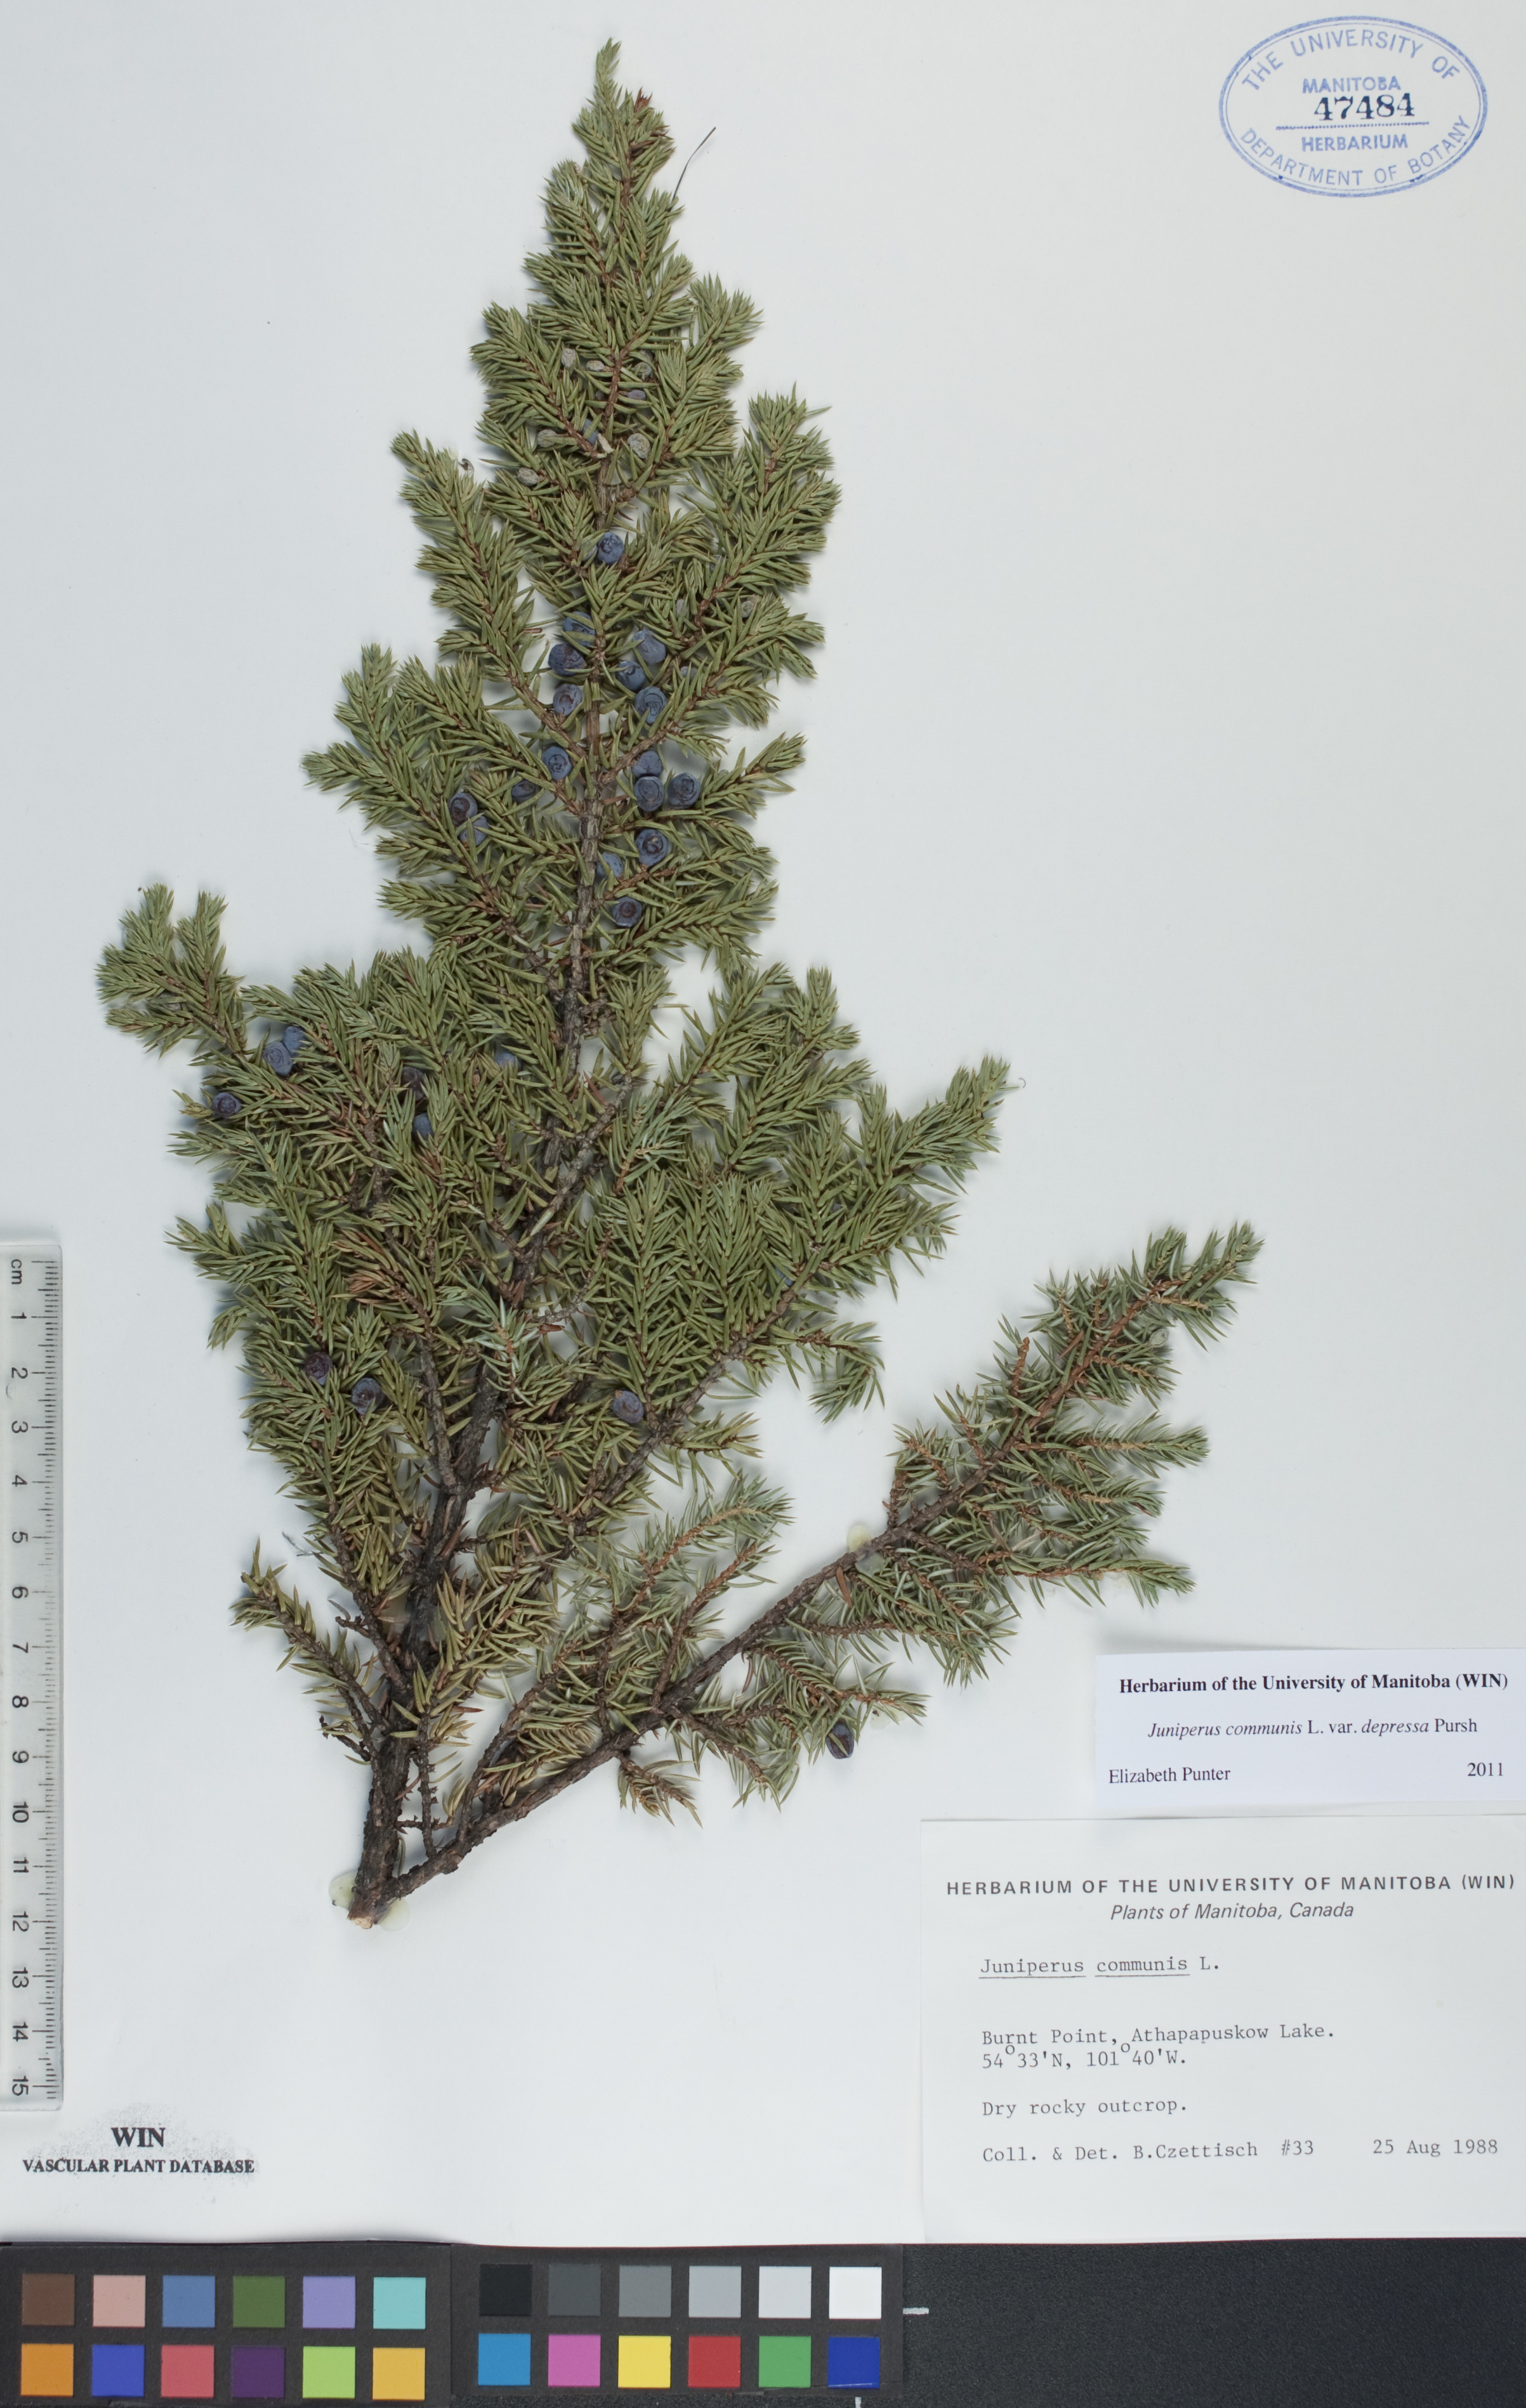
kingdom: Plantae
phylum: Tracheophyta
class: Pinopsida
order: Pinales
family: Cupressaceae
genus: Juniperus
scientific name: Juniperus communis
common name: Common juniper
